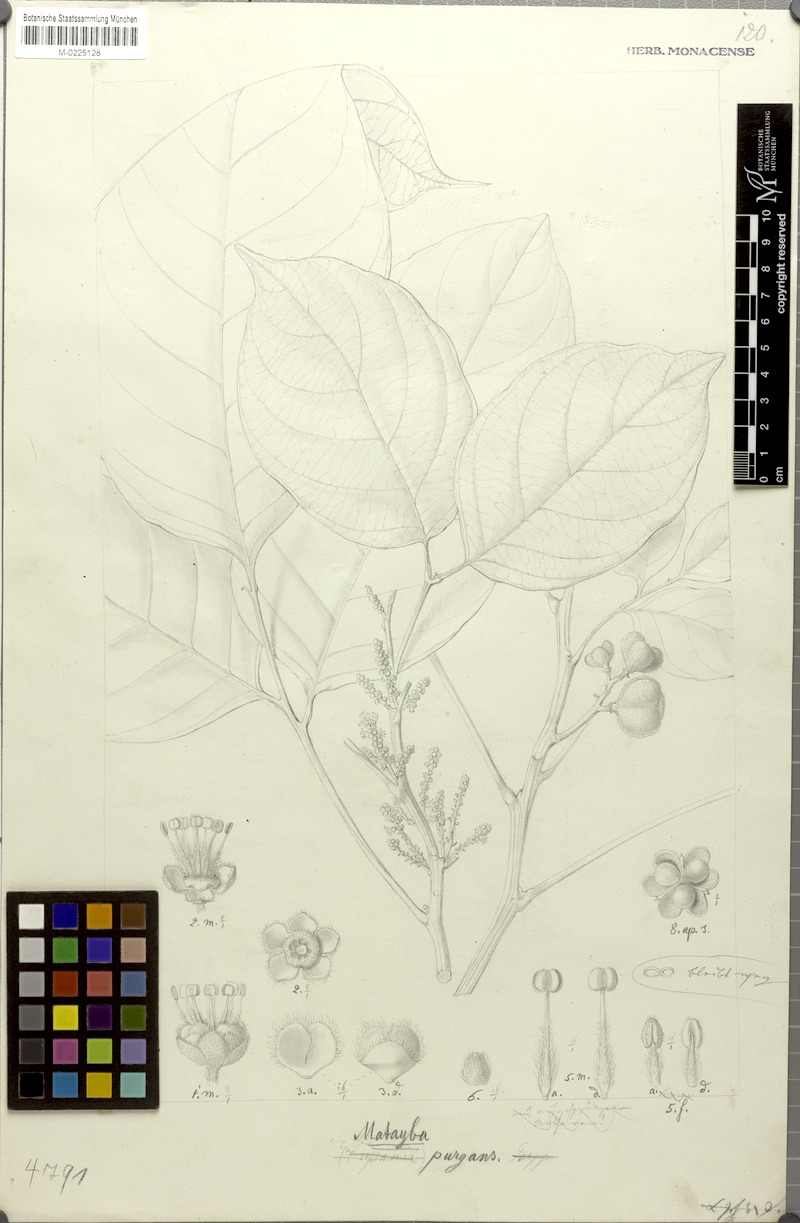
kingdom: Plantae
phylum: Tracheophyta
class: Magnoliopsida
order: Sapindales
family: Sapindaceae
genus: Matayba
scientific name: Matayba purgans
